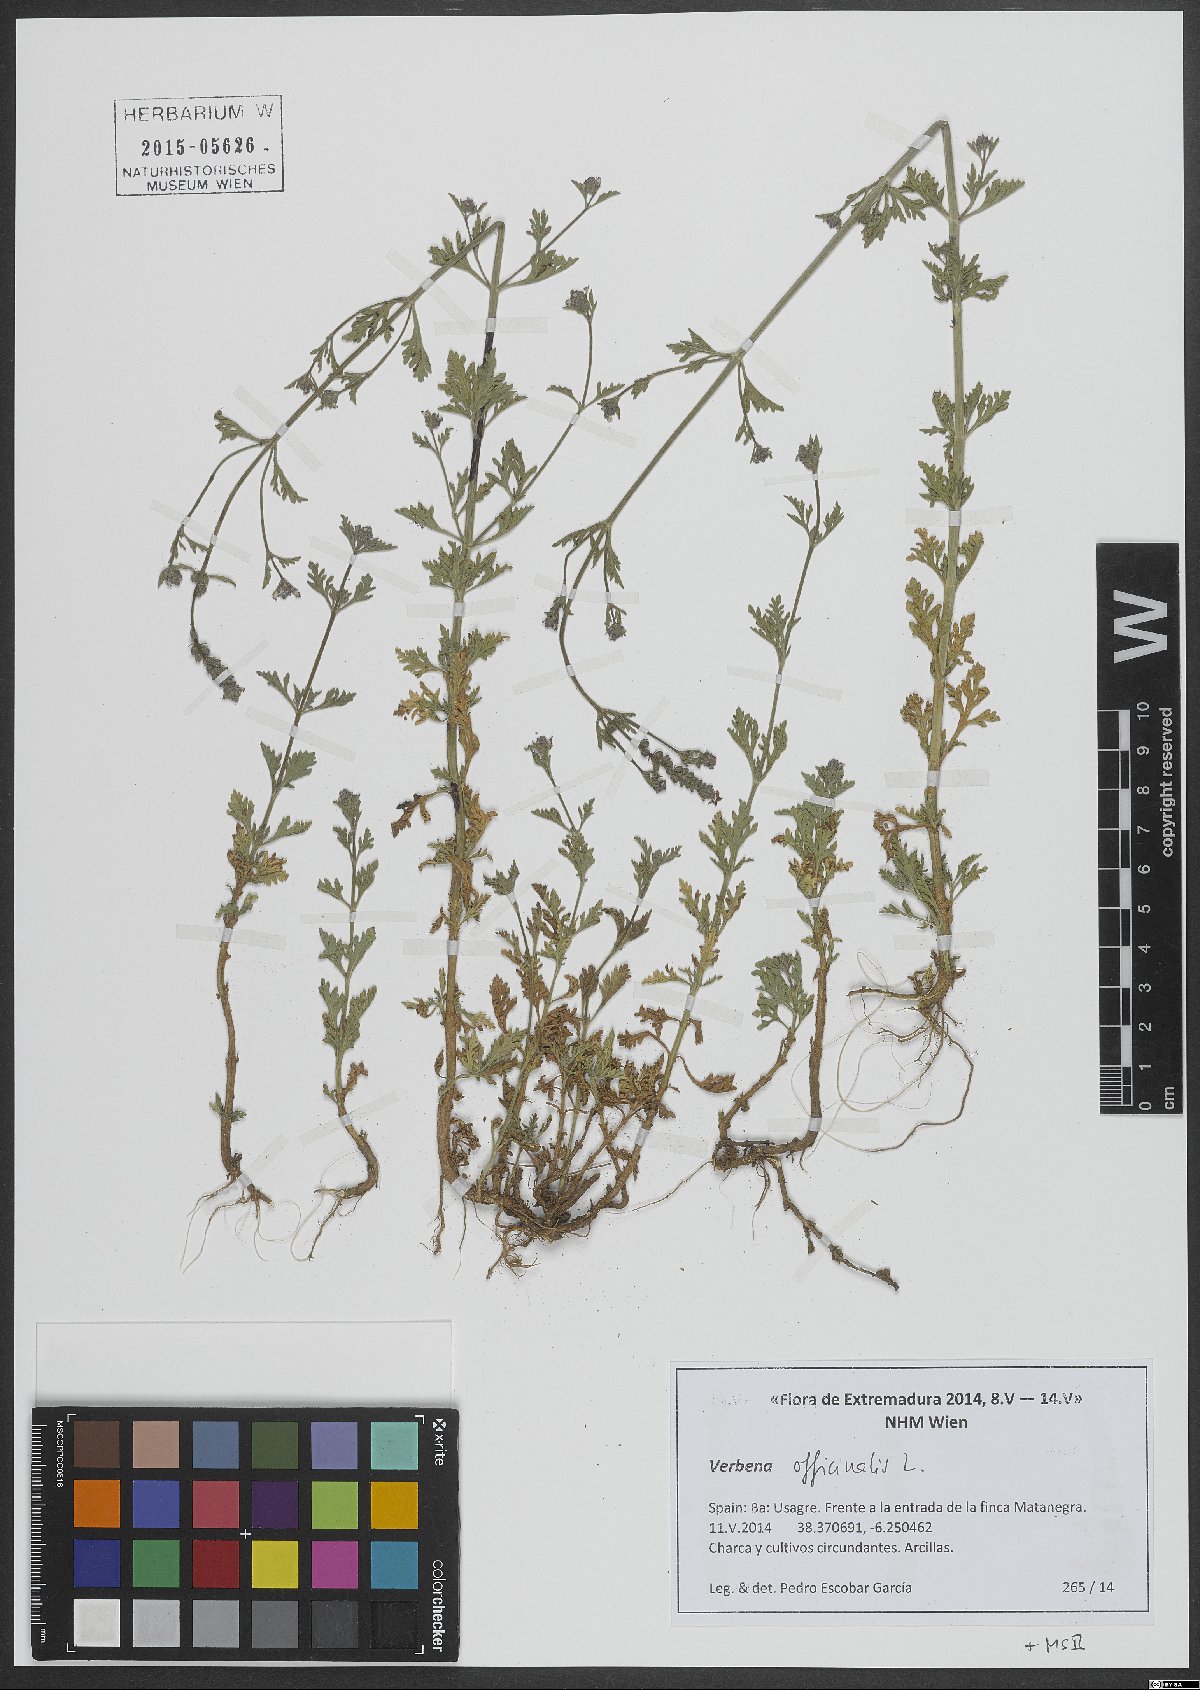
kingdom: Plantae
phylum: Tracheophyta
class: Magnoliopsida
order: Lamiales
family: Verbenaceae
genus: Verbena
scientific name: Verbena officinalis
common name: Vervain
